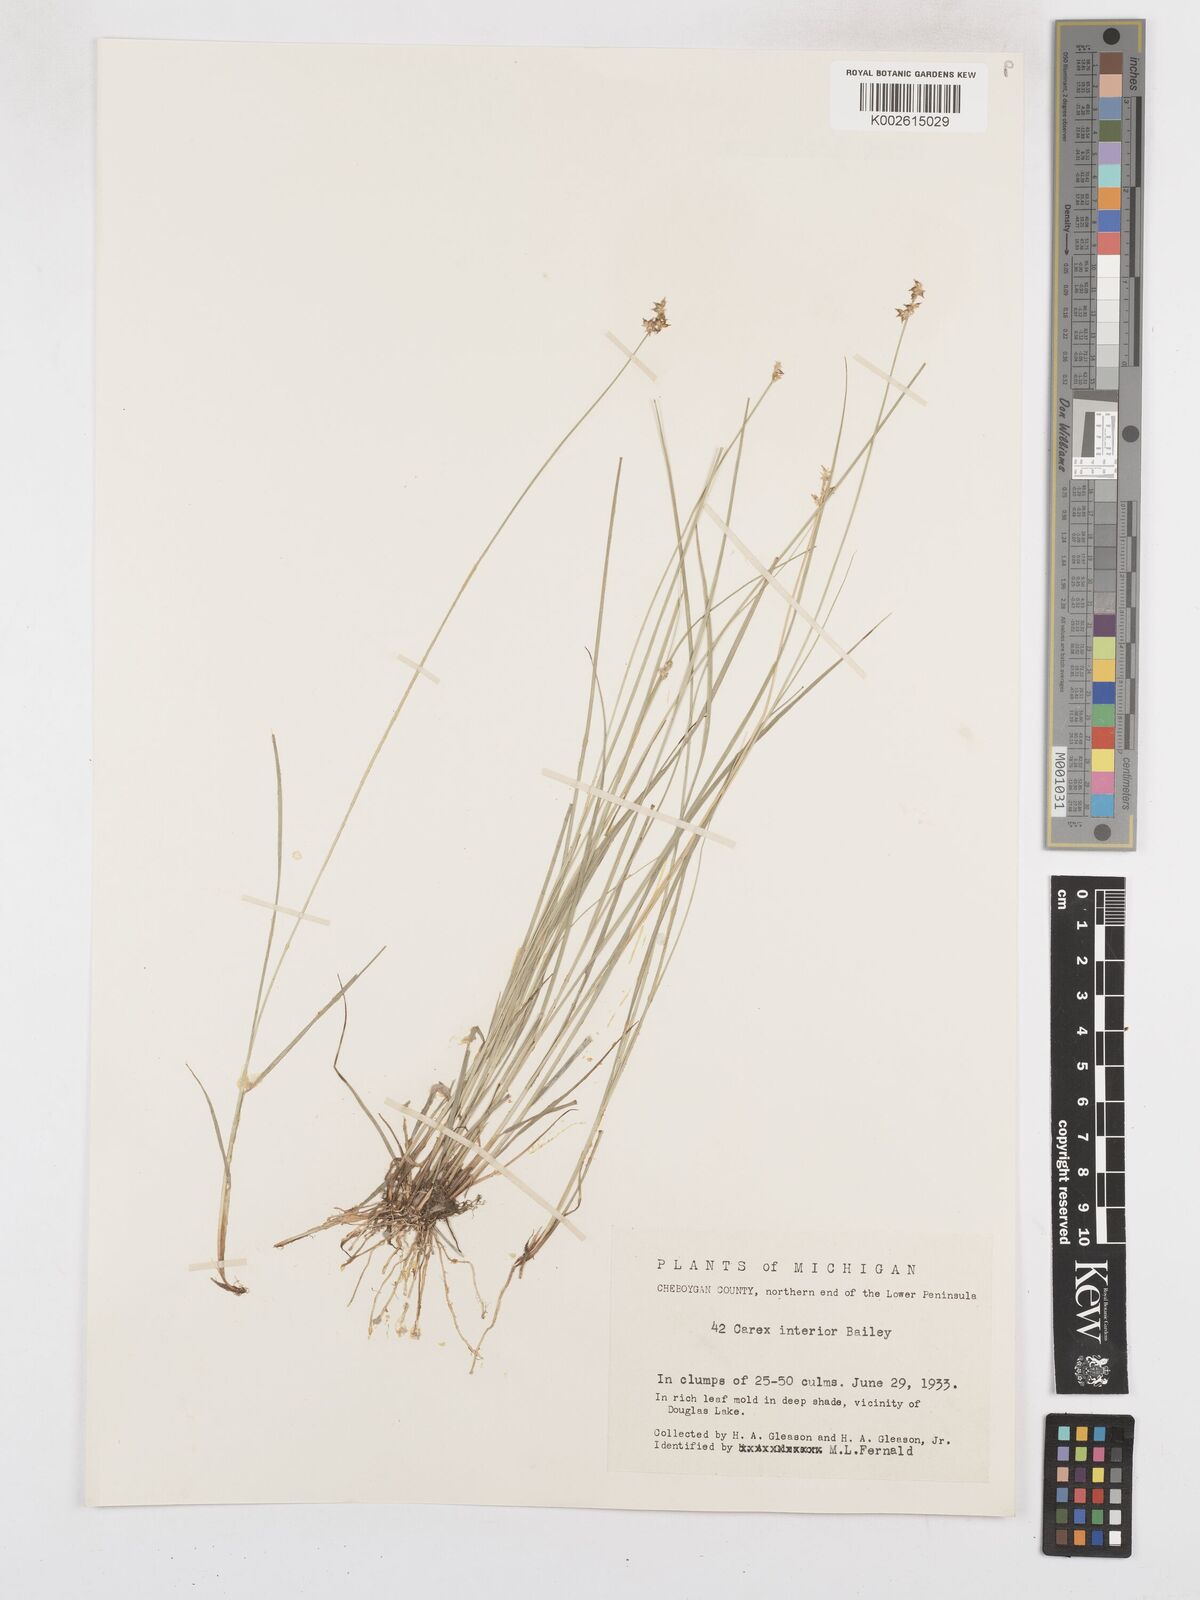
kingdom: Plantae
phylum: Tracheophyta
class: Liliopsida
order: Poales
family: Cyperaceae
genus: Carex
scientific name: Carex interior
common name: Inland sedge
